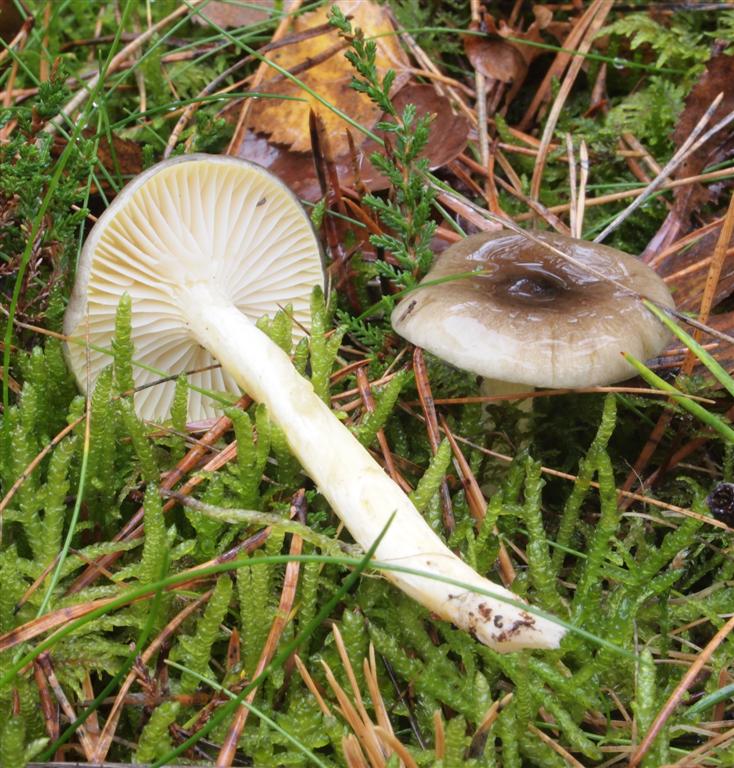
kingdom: Fungi
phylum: Basidiomycota
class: Agaricomycetes
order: Agaricales
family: Hygrophoraceae
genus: Hygrophorus
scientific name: Hygrophorus hypothejus
